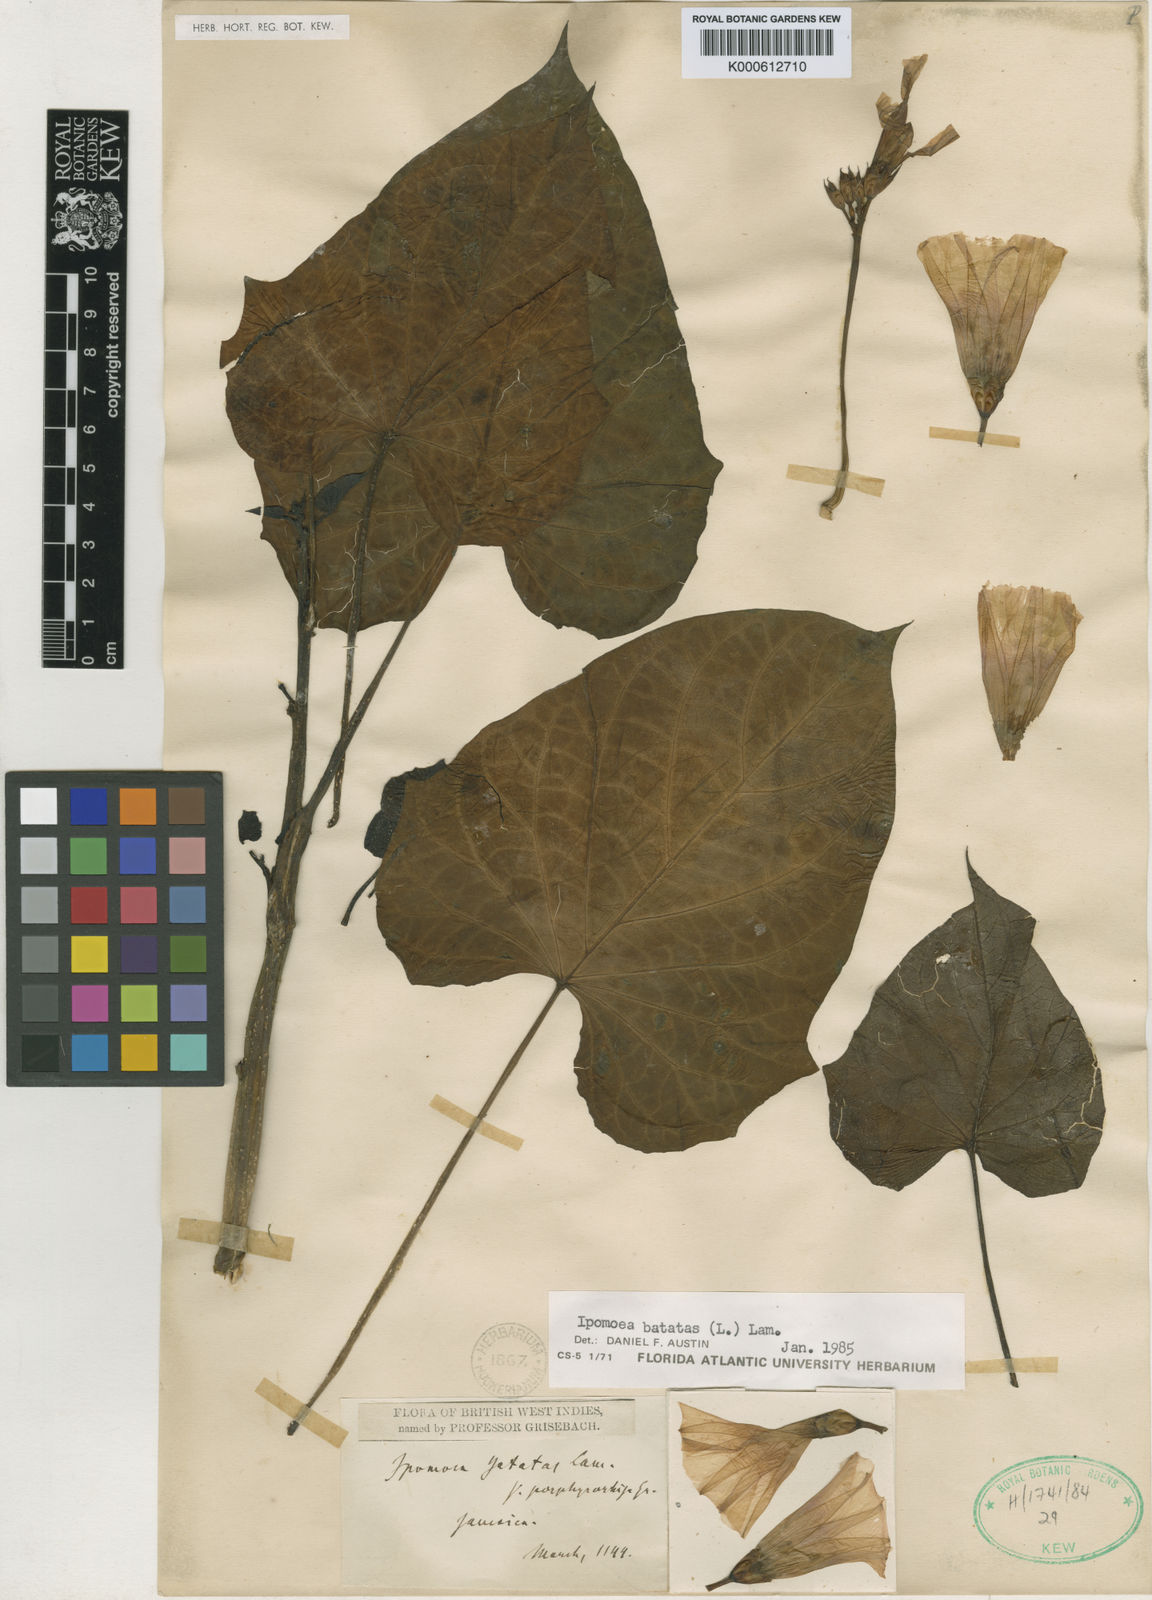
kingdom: Plantae
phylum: Tracheophyta
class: Magnoliopsida
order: Solanales
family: Convolvulaceae
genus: Ipomoea
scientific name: Ipomoea batatas
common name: Sweet-potato
